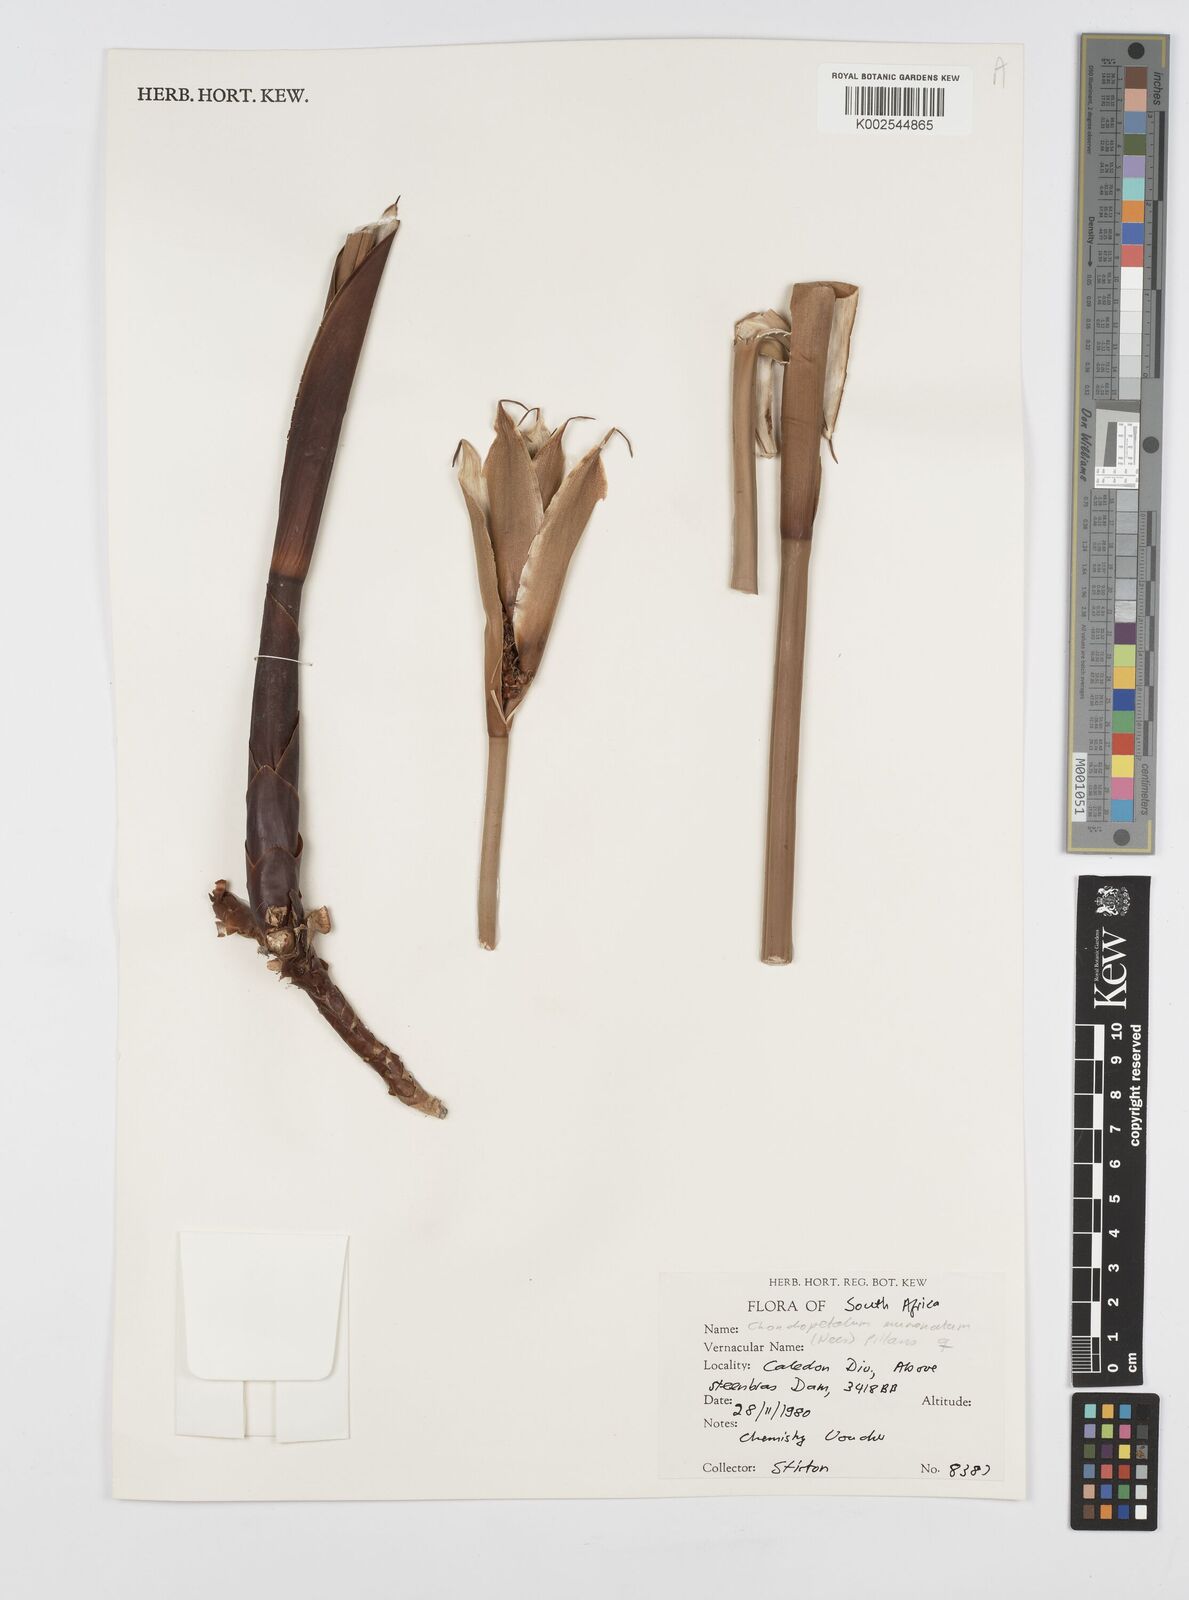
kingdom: Plantae
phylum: Tracheophyta
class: Liliopsida
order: Poales
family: Restionaceae
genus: Elegia
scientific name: Elegia mucronata
